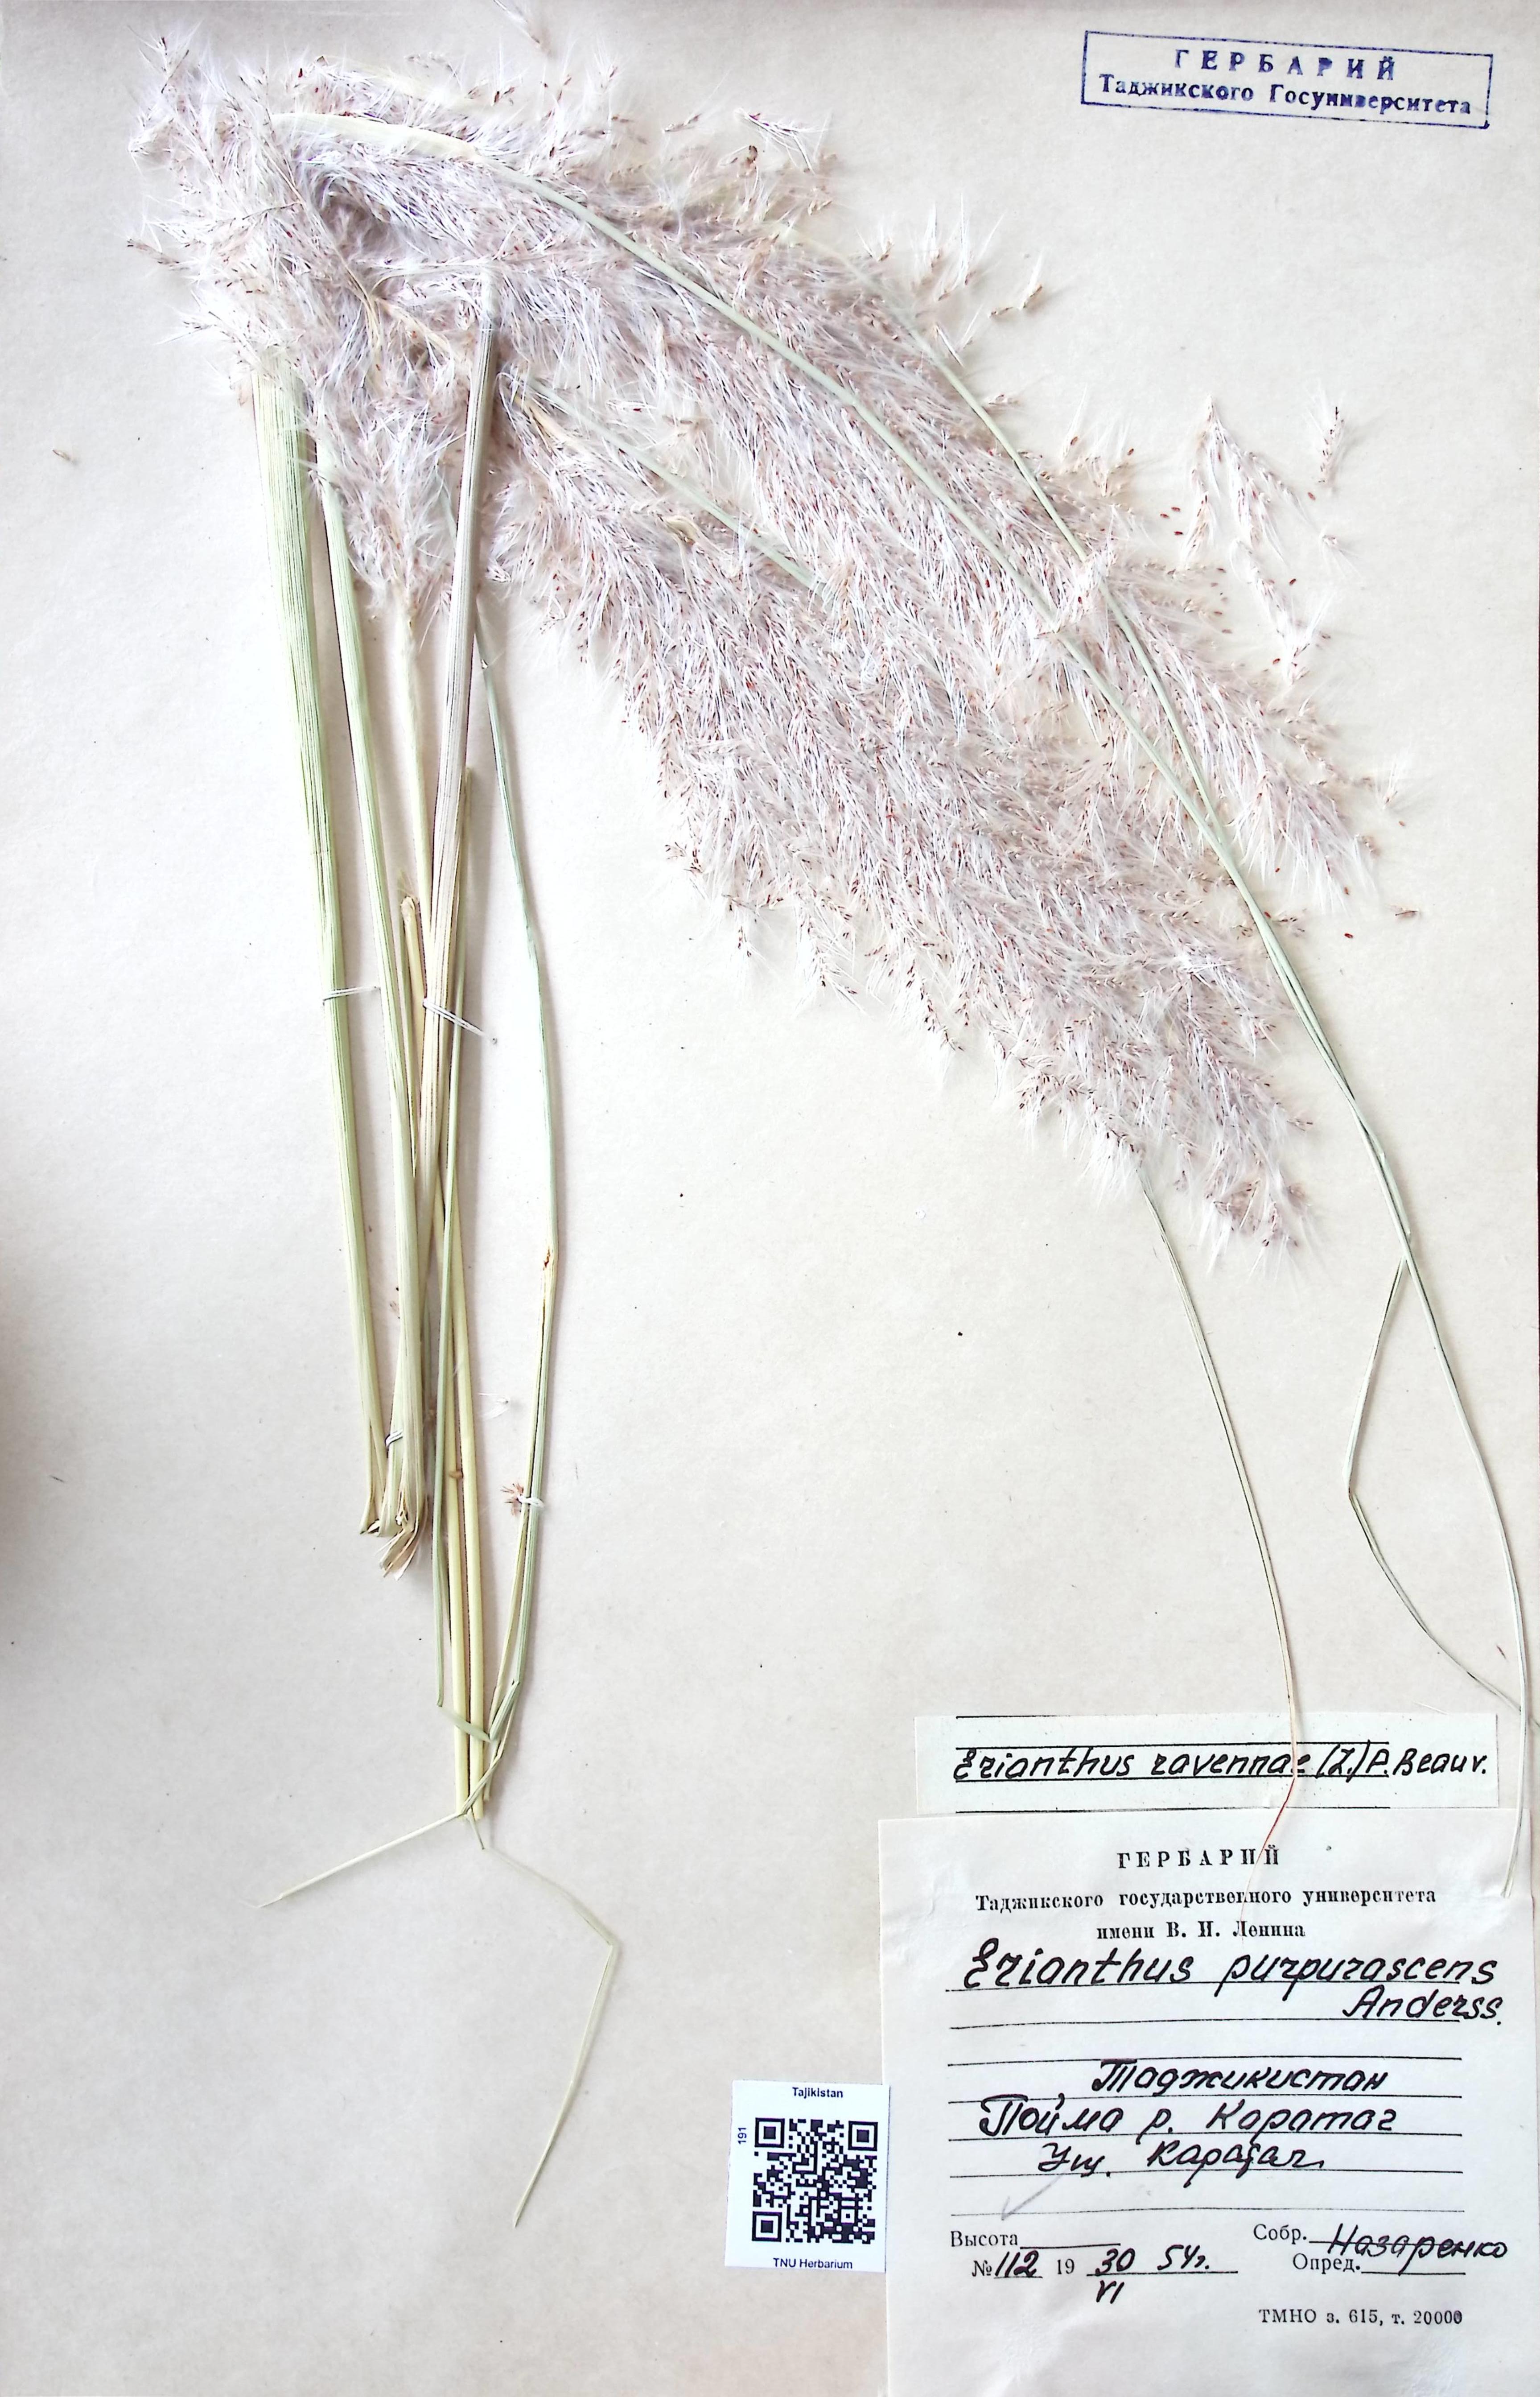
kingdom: Plantae
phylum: Tracheophyta
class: Liliopsida
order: Poales
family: Poaceae
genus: Tripidium
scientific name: Tripidium ravennae
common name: Ravenna grass
